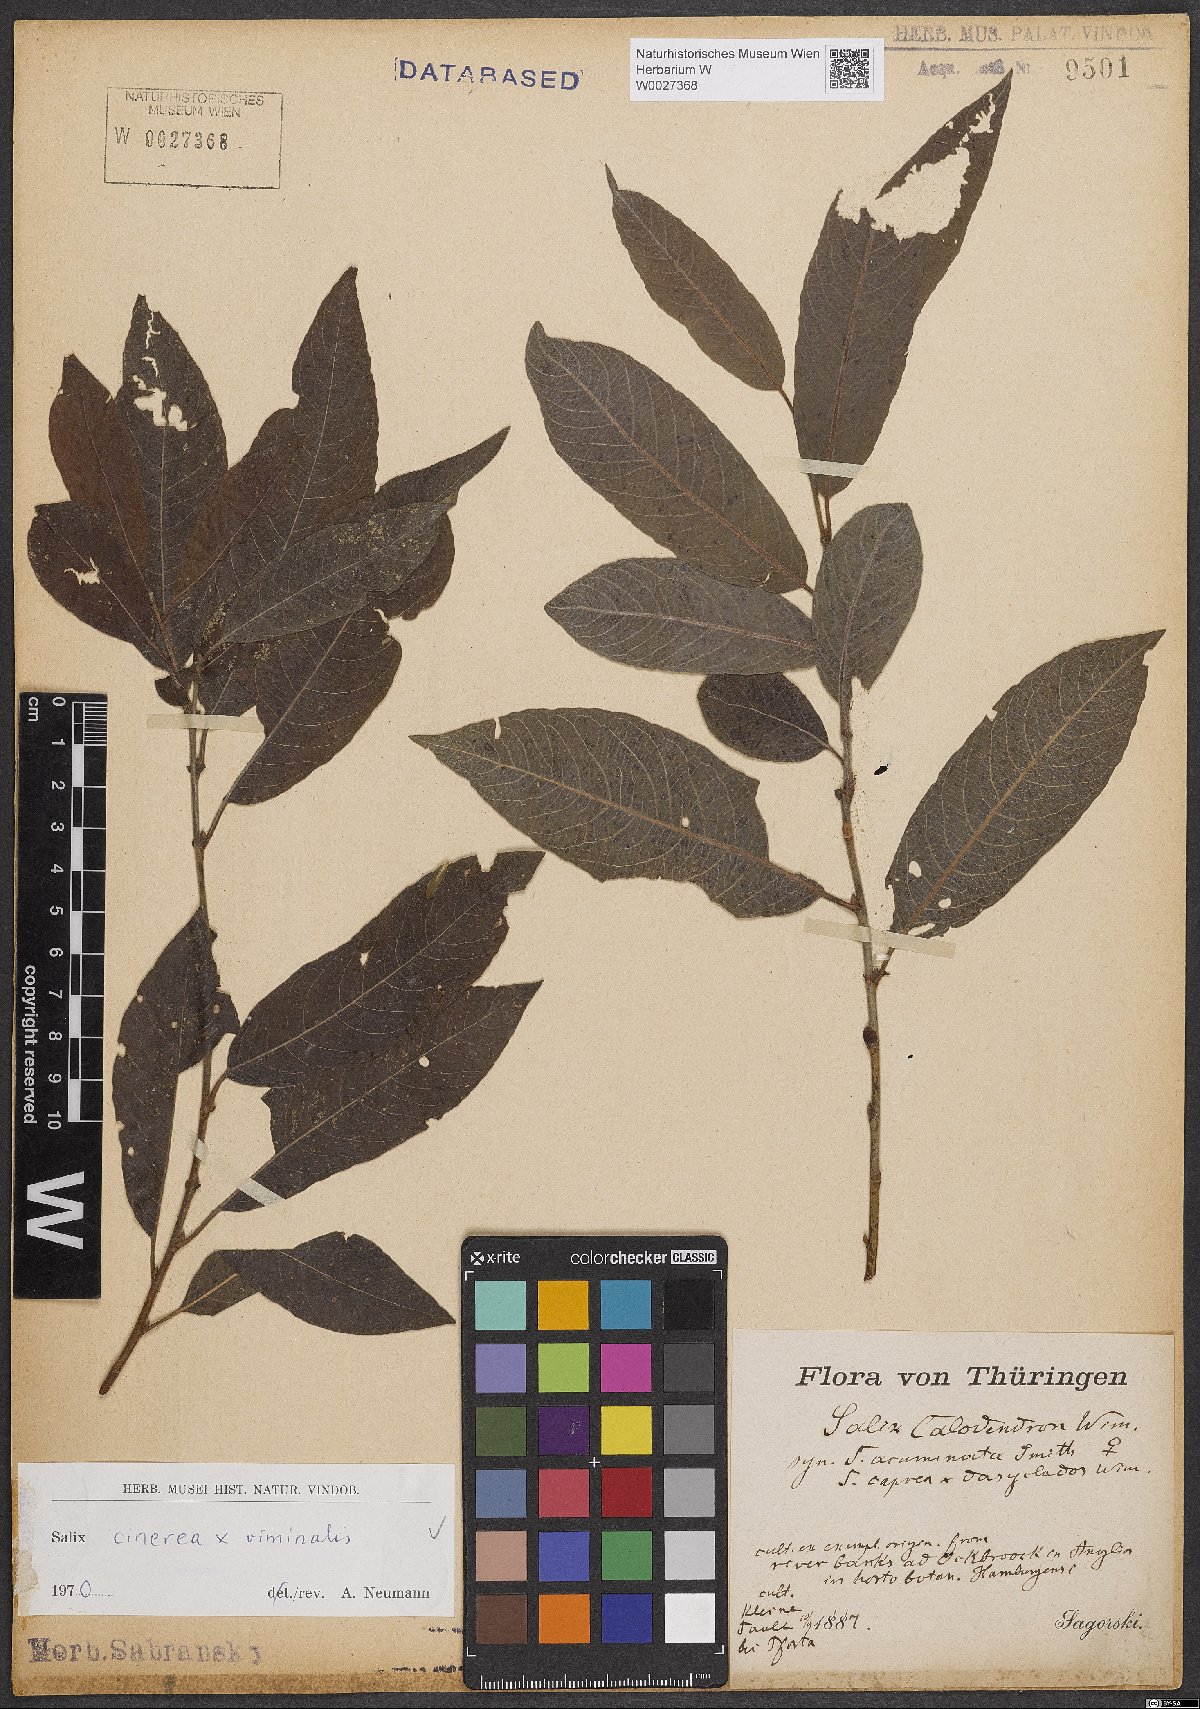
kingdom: Plantae
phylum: Tracheophyta
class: Magnoliopsida
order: Malpighiales
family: Salicaceae
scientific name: Salicaceae
